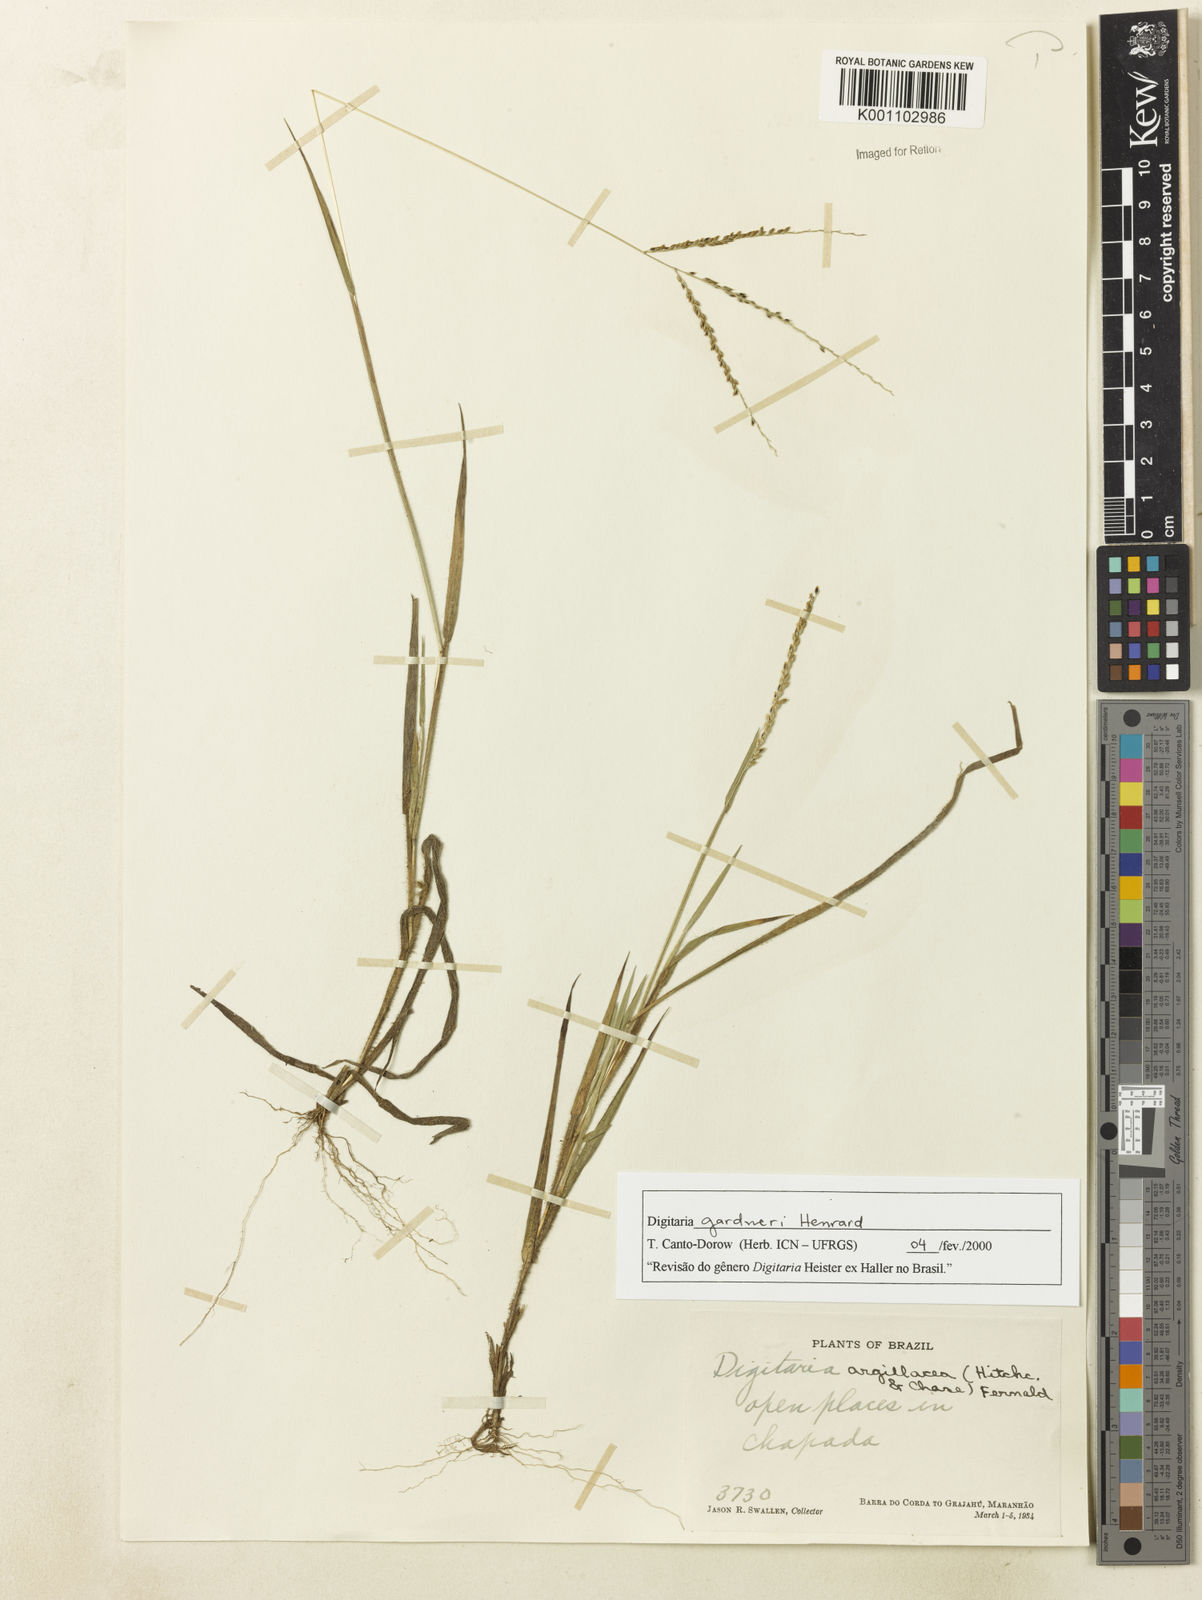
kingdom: Plantae
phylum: Tracheophyta
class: Liliopsida
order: Poales
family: Poaceae
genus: Digitaria
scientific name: Digitaria gardneri
